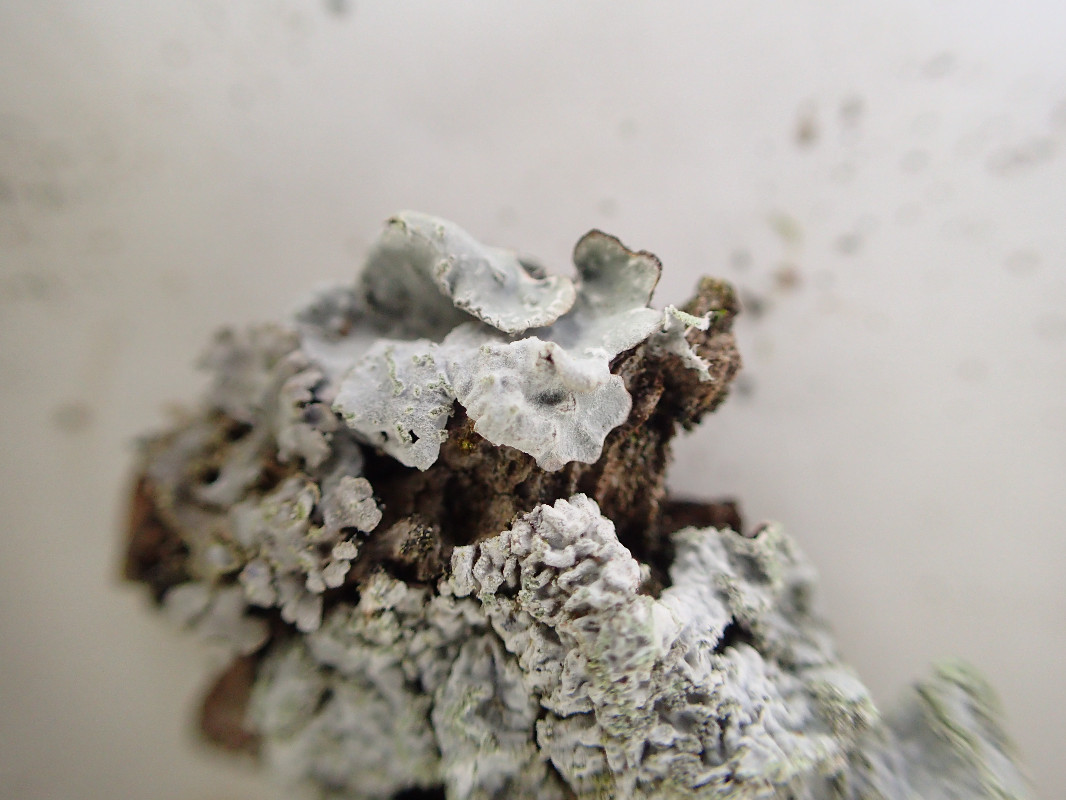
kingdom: Fungi
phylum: Ascomycota
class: Lecanoromycetes
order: Lecanorales
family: Parmeliaceae
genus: Parmelia
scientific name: Parmelia sulcata
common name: rynket skållav
